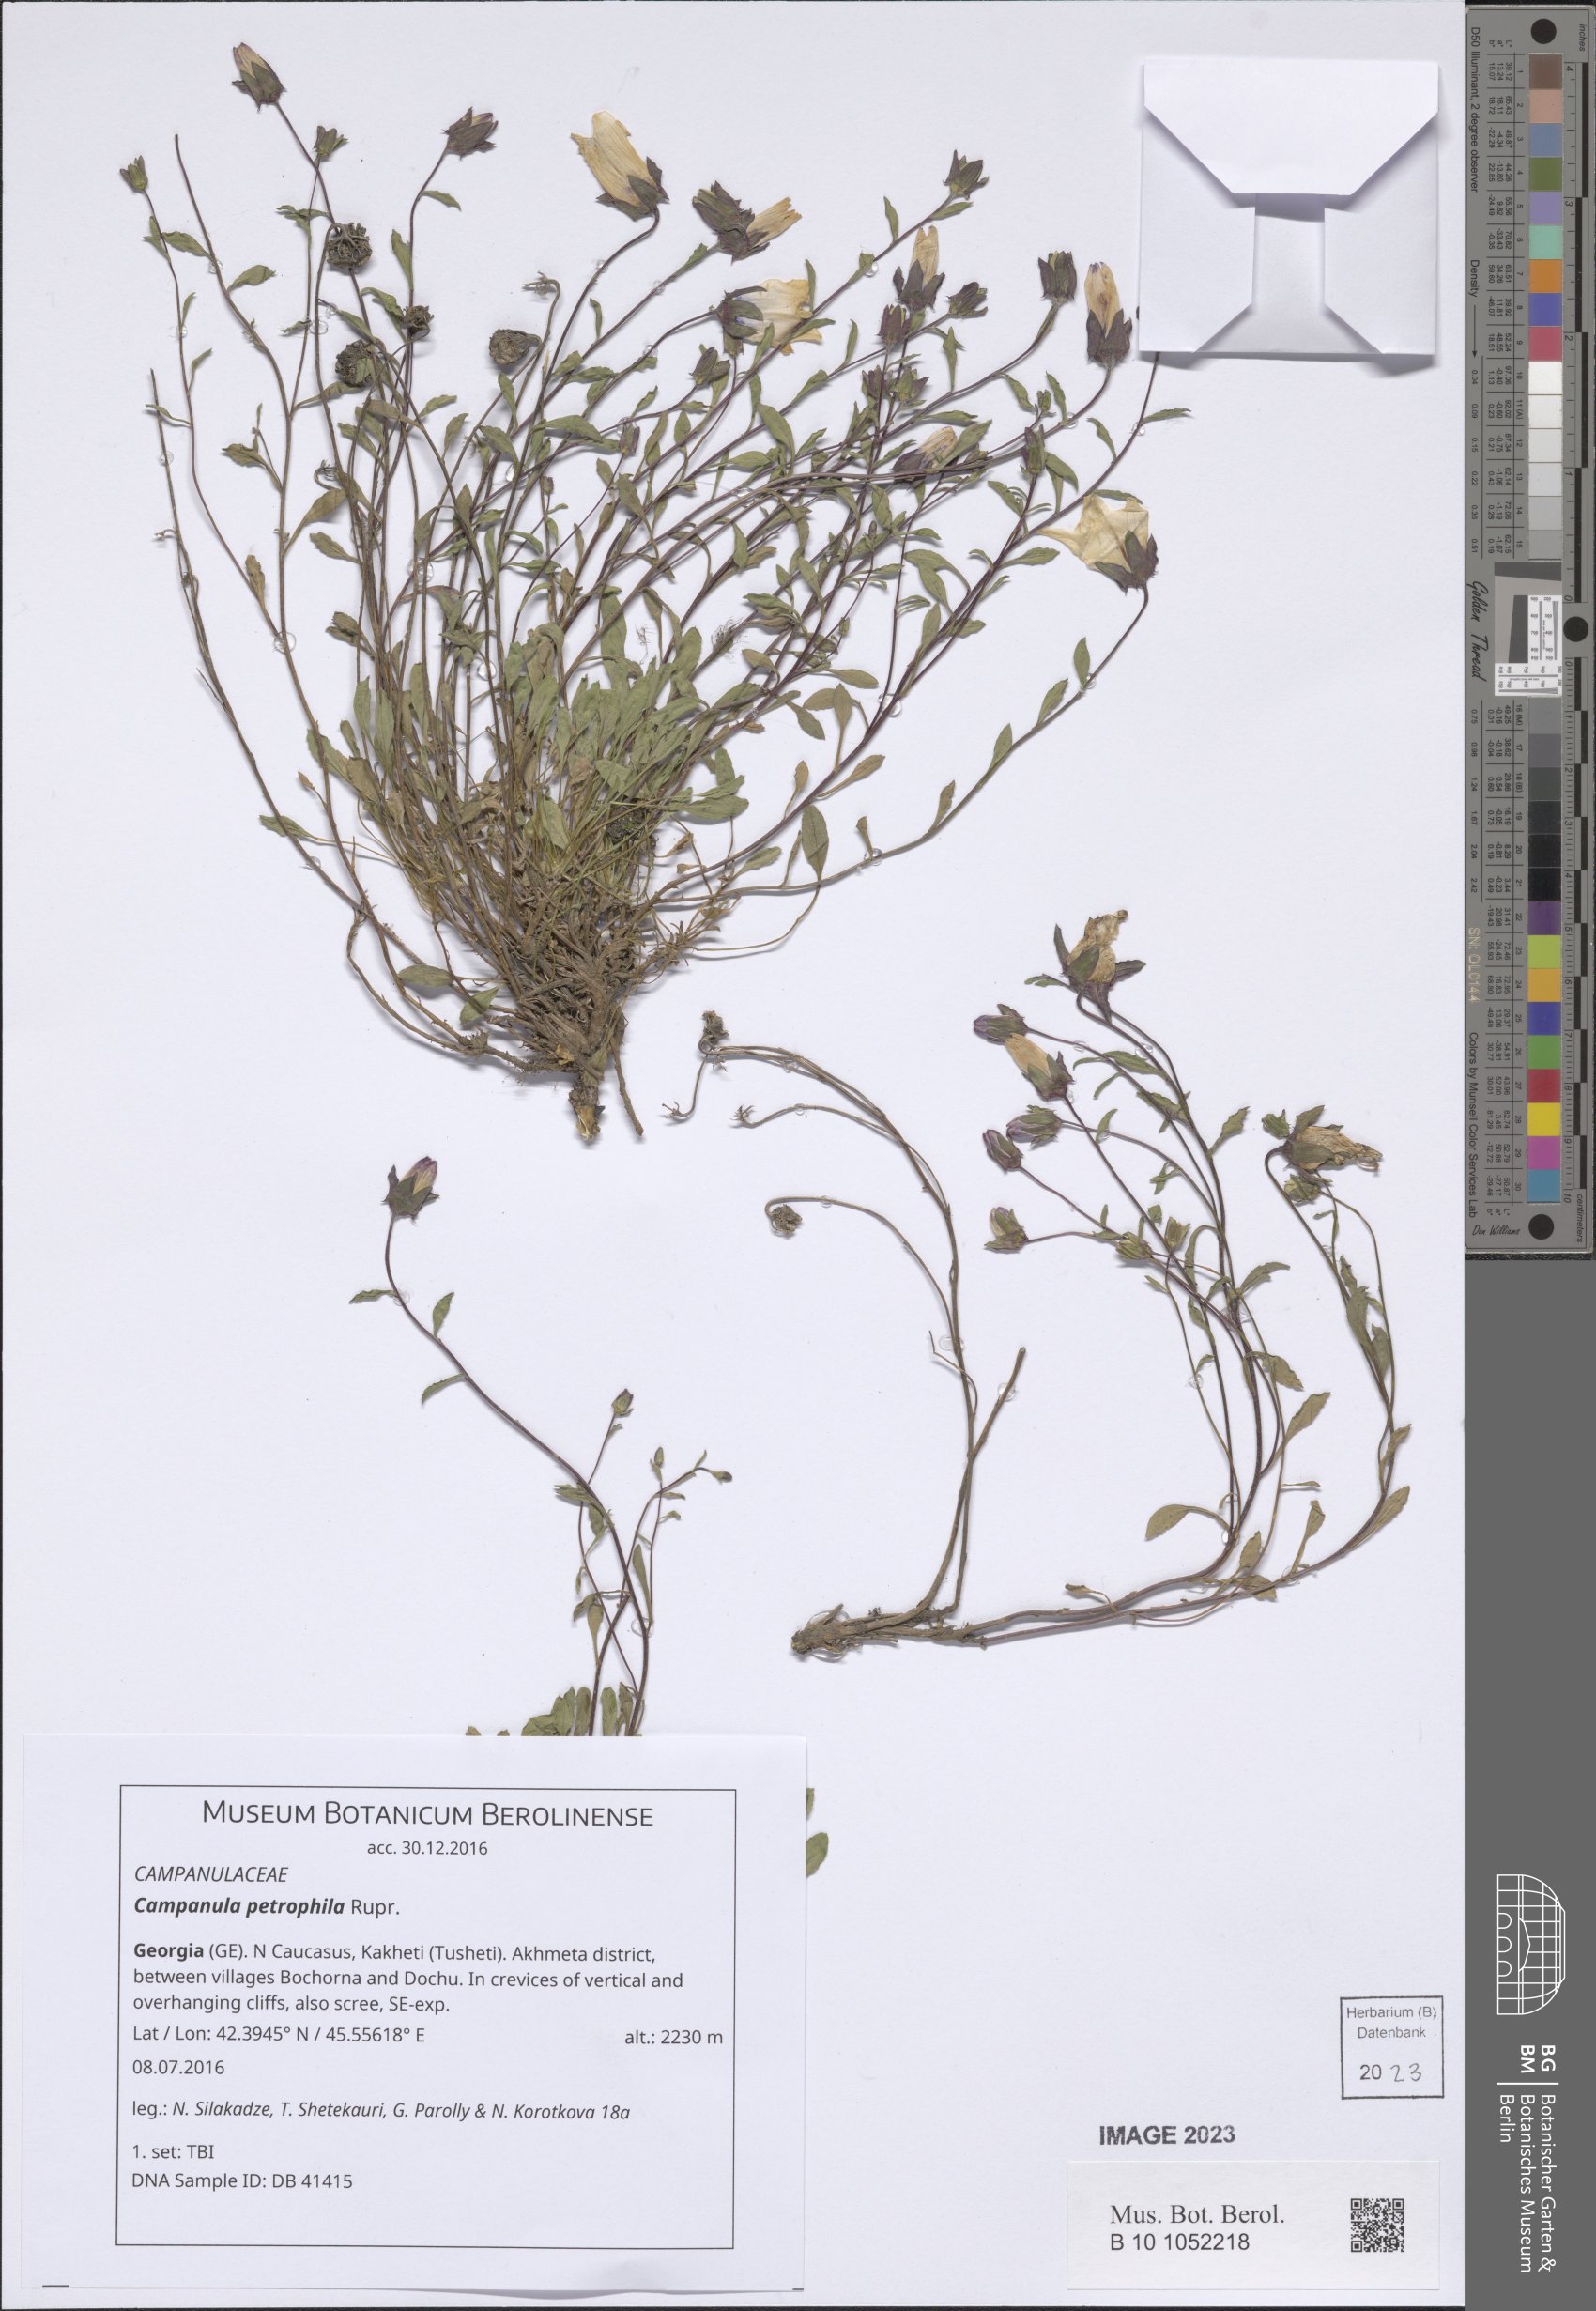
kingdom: Plantae
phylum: Tracheophyta
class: Magnoliopsida
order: Asterales
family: Campanulaceae
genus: Campanula
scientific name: Campanula petrophila
